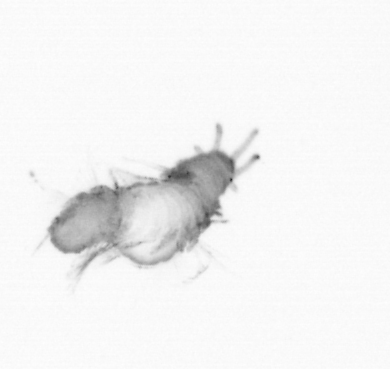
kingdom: Animalia
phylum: Annelida
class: Polychaeta
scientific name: Polychaeta
